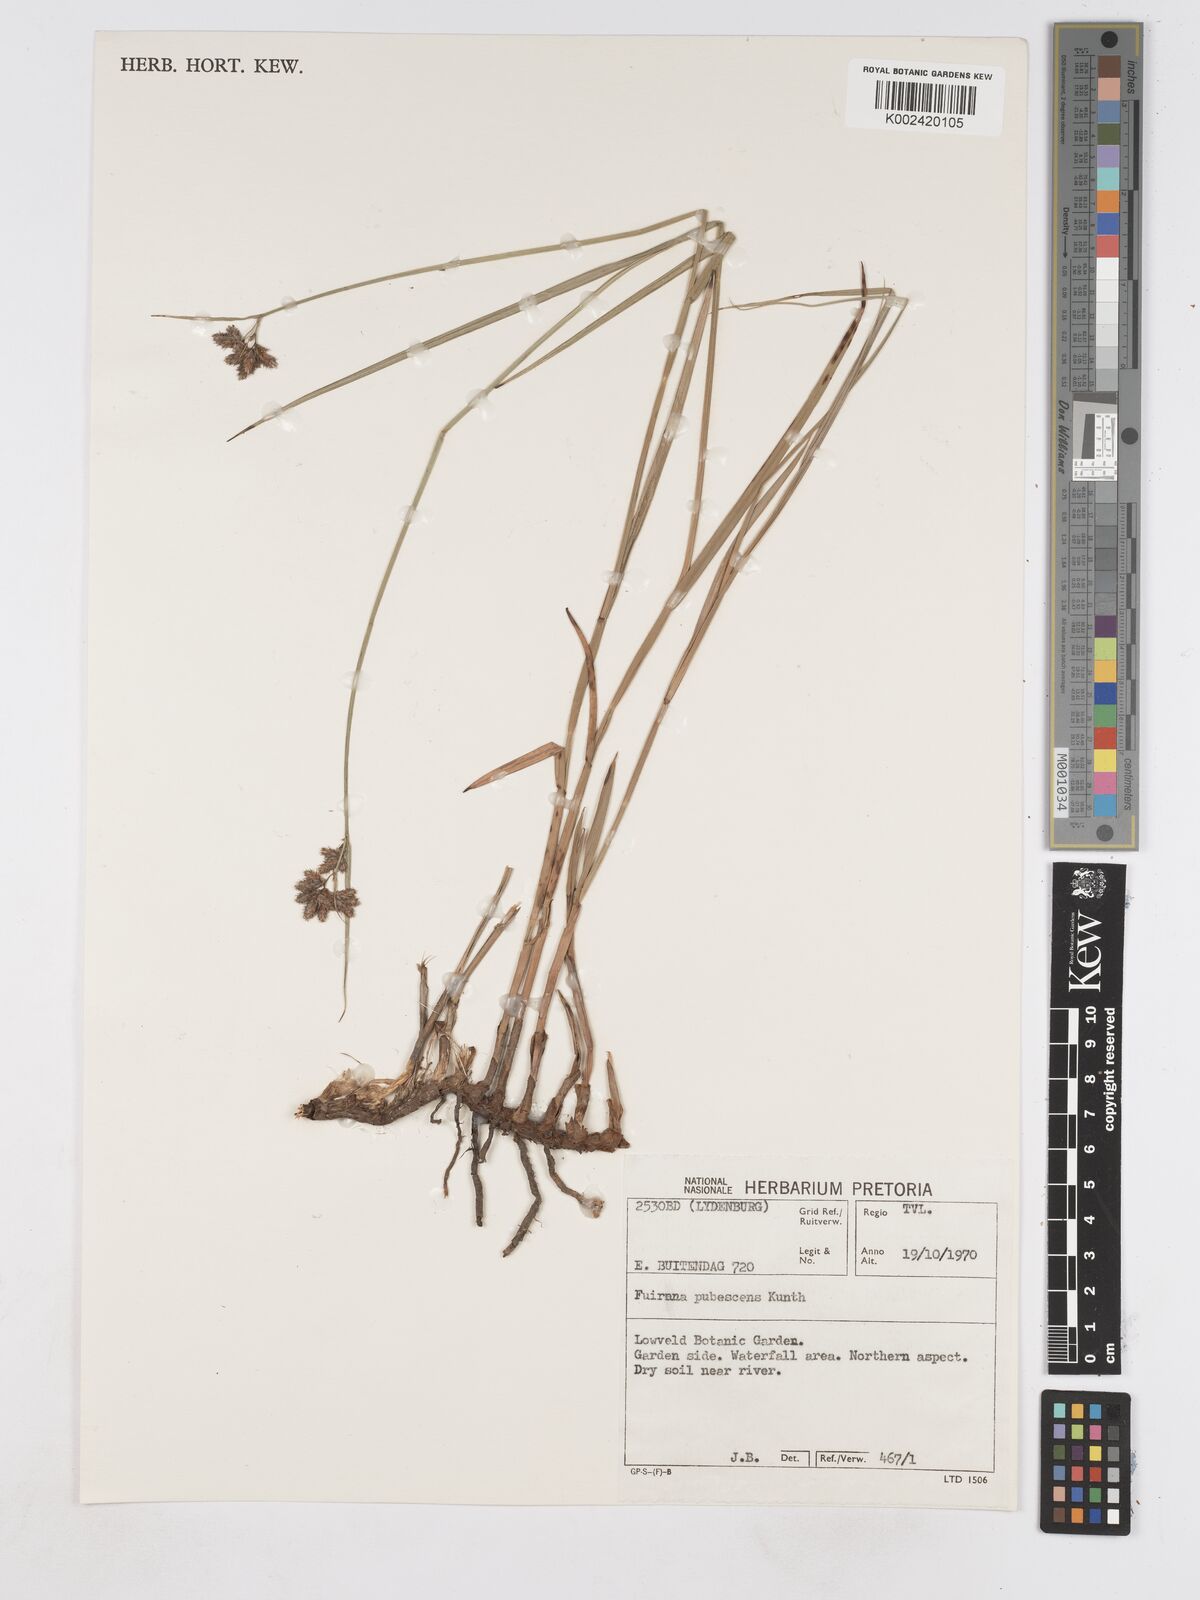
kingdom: Plantae
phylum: Tracheophyta
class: Liliopsida
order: Poales
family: Cyperaceae
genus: Fuirena
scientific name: Fuirena pubescens
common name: Hairy sedge
